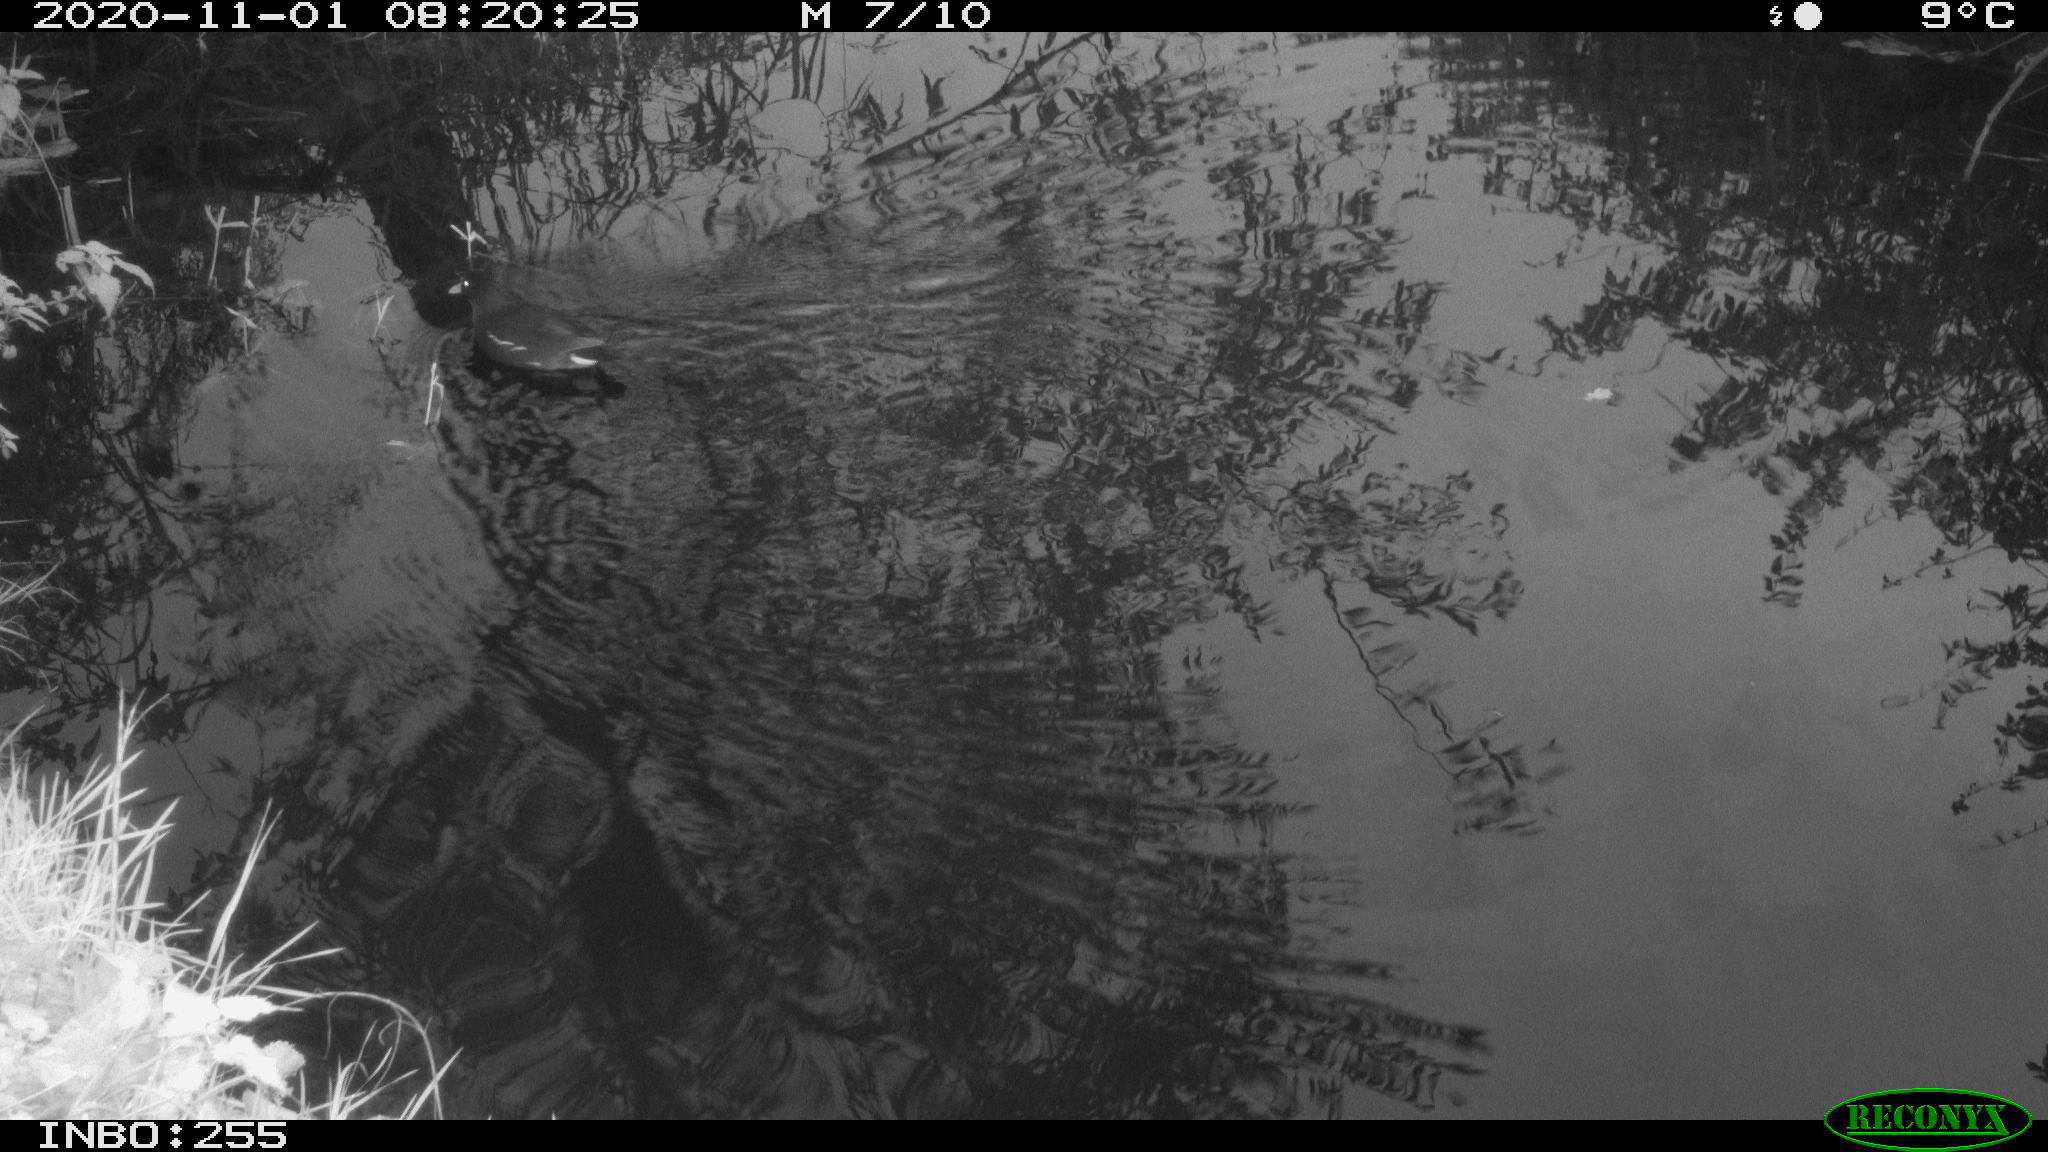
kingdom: Animalia
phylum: Chordata
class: Aves
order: Gruiformes
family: Rallidae
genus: Gallinula
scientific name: Gallinula chloropus
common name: Common moorhen
